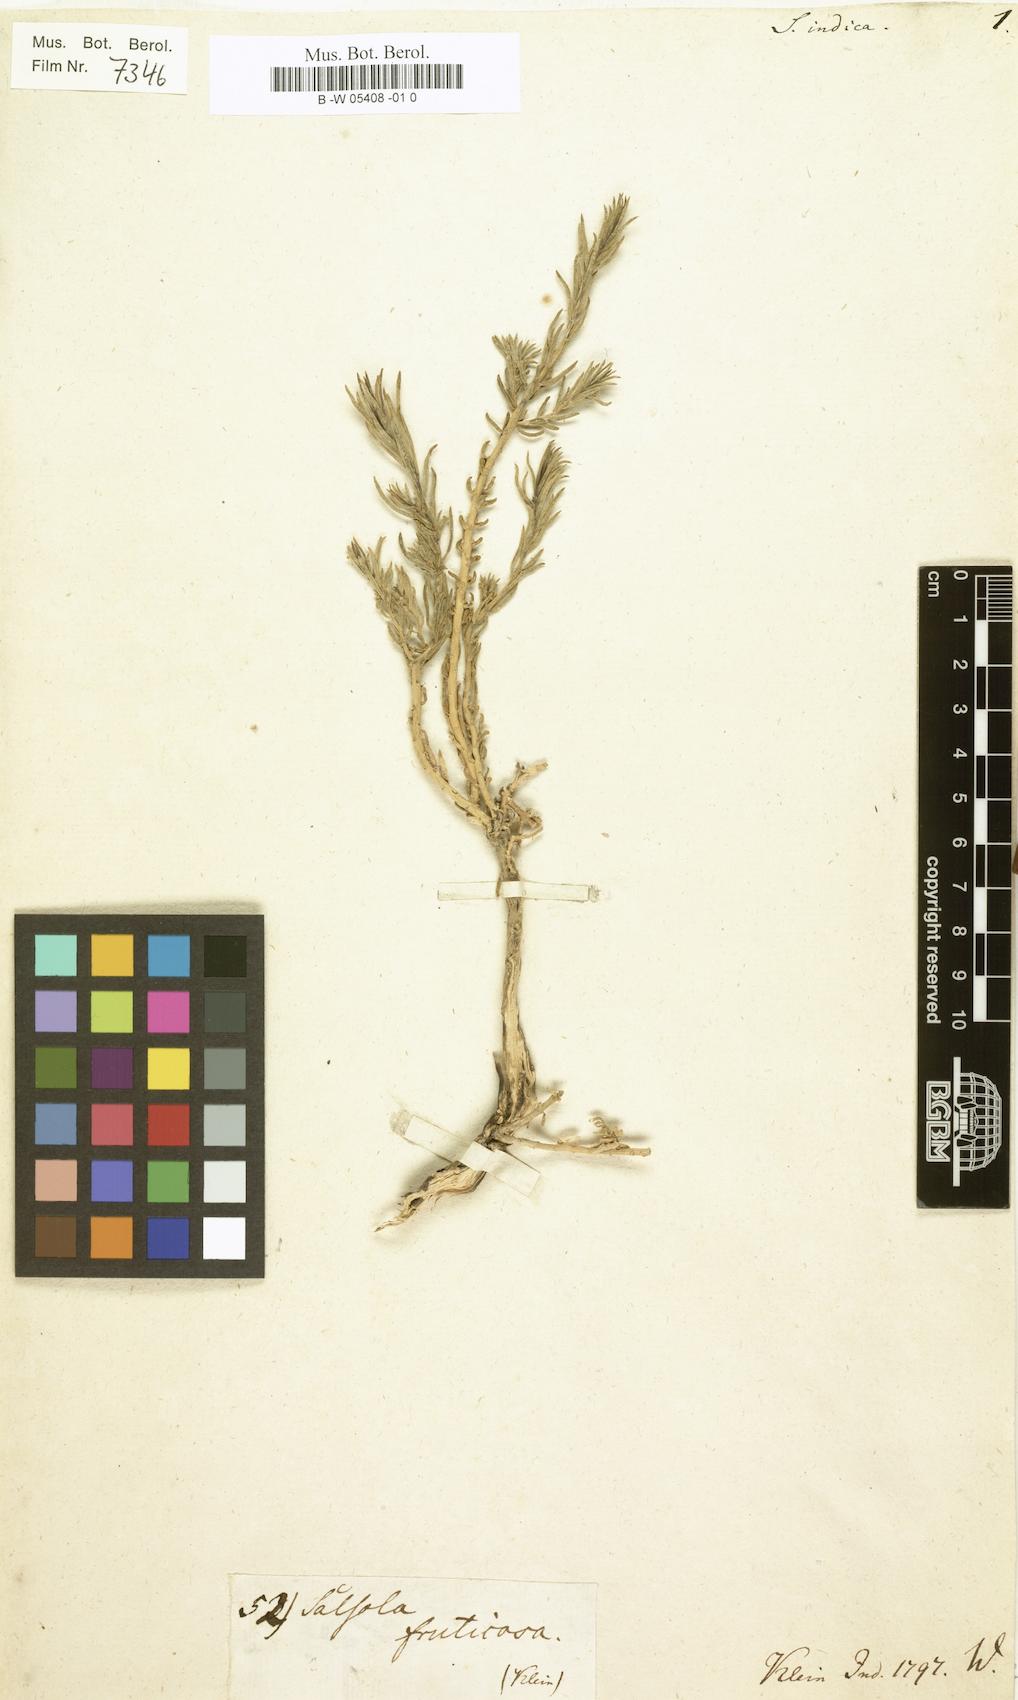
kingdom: Plantae
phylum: Tracheophyta
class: Magnoliopsida
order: Caryophyllales
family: Amaranthaceae
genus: Suaeda
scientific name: Suaeda
